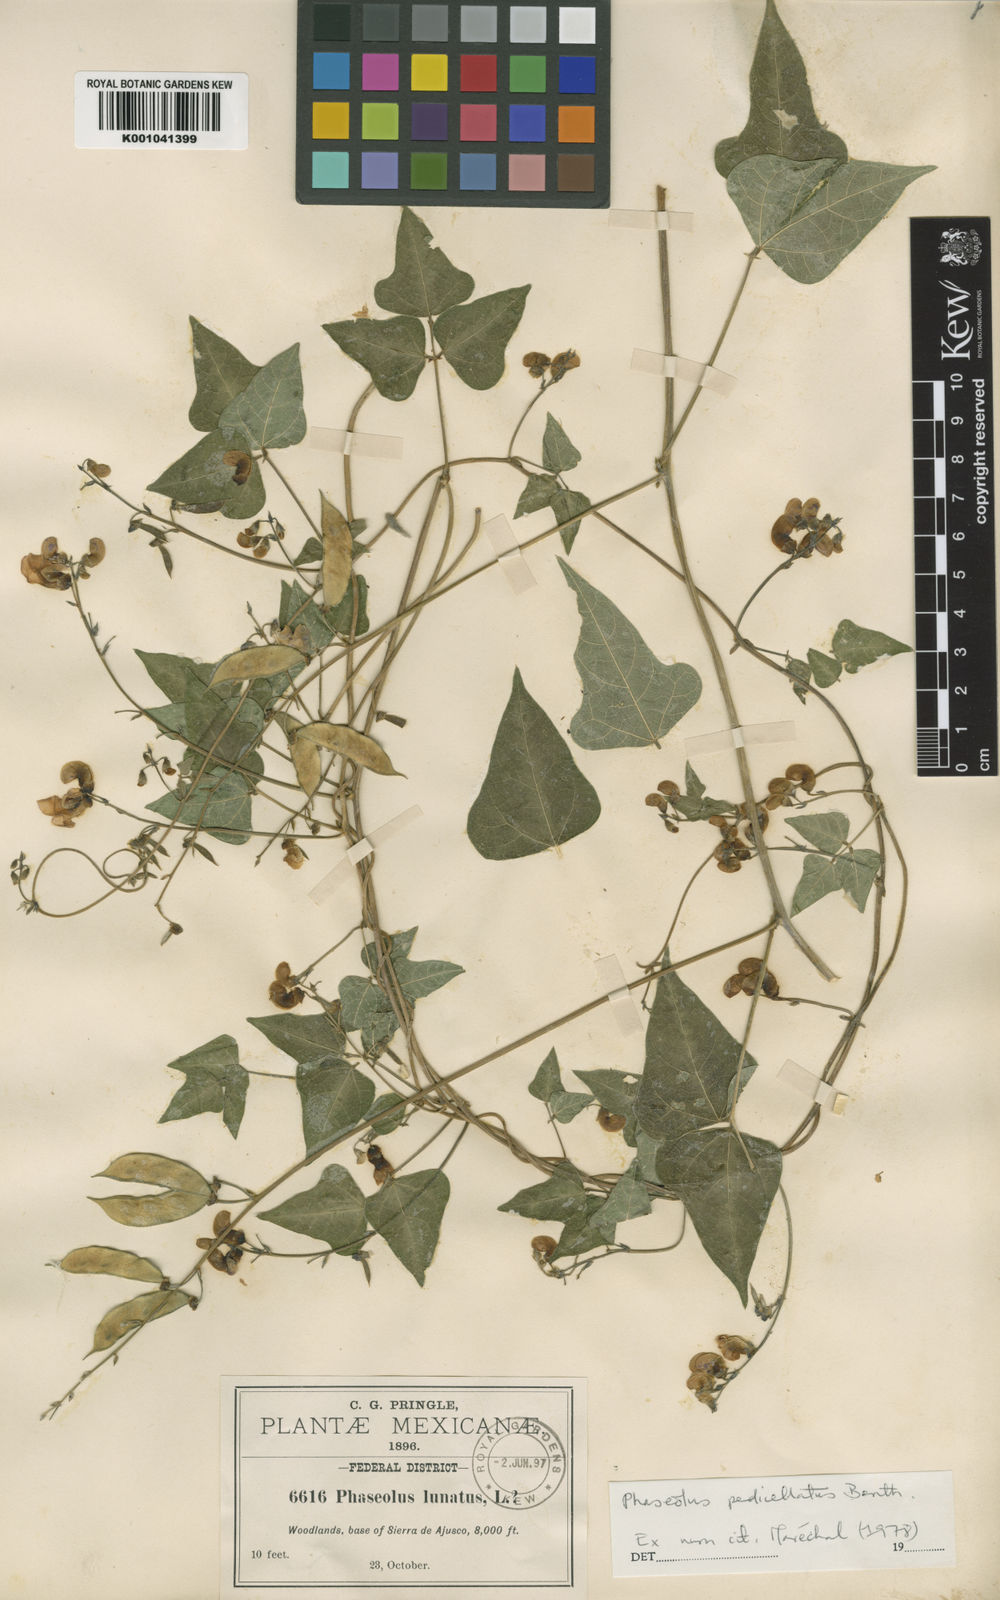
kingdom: Plantae
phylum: Tracheophyta
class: Magnoliopsida
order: Fabales
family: Fabaceae
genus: Phaseolus
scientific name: Phaseolus pedicellatus
